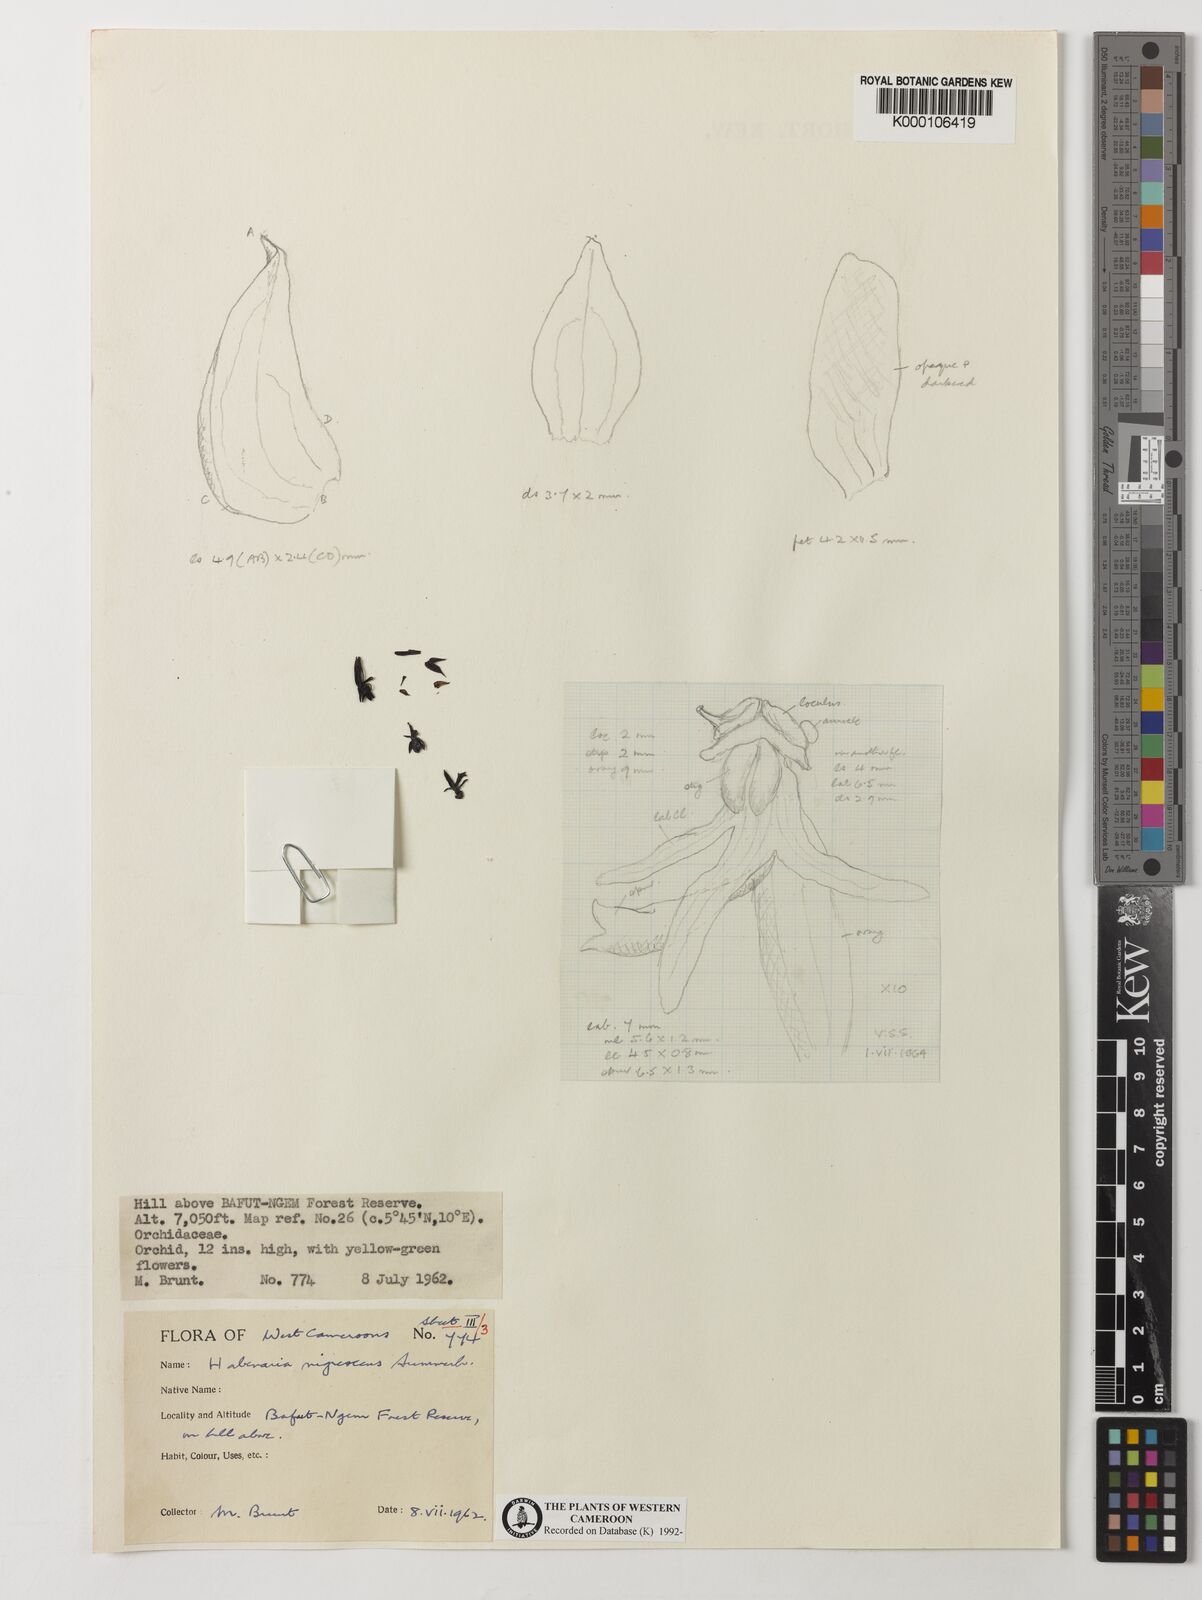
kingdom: Plantae
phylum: Tracheophyta
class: Liliopsida
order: Asparagales
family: Orchidaceae
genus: Habenaria
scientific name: Habenaria nigrescens
